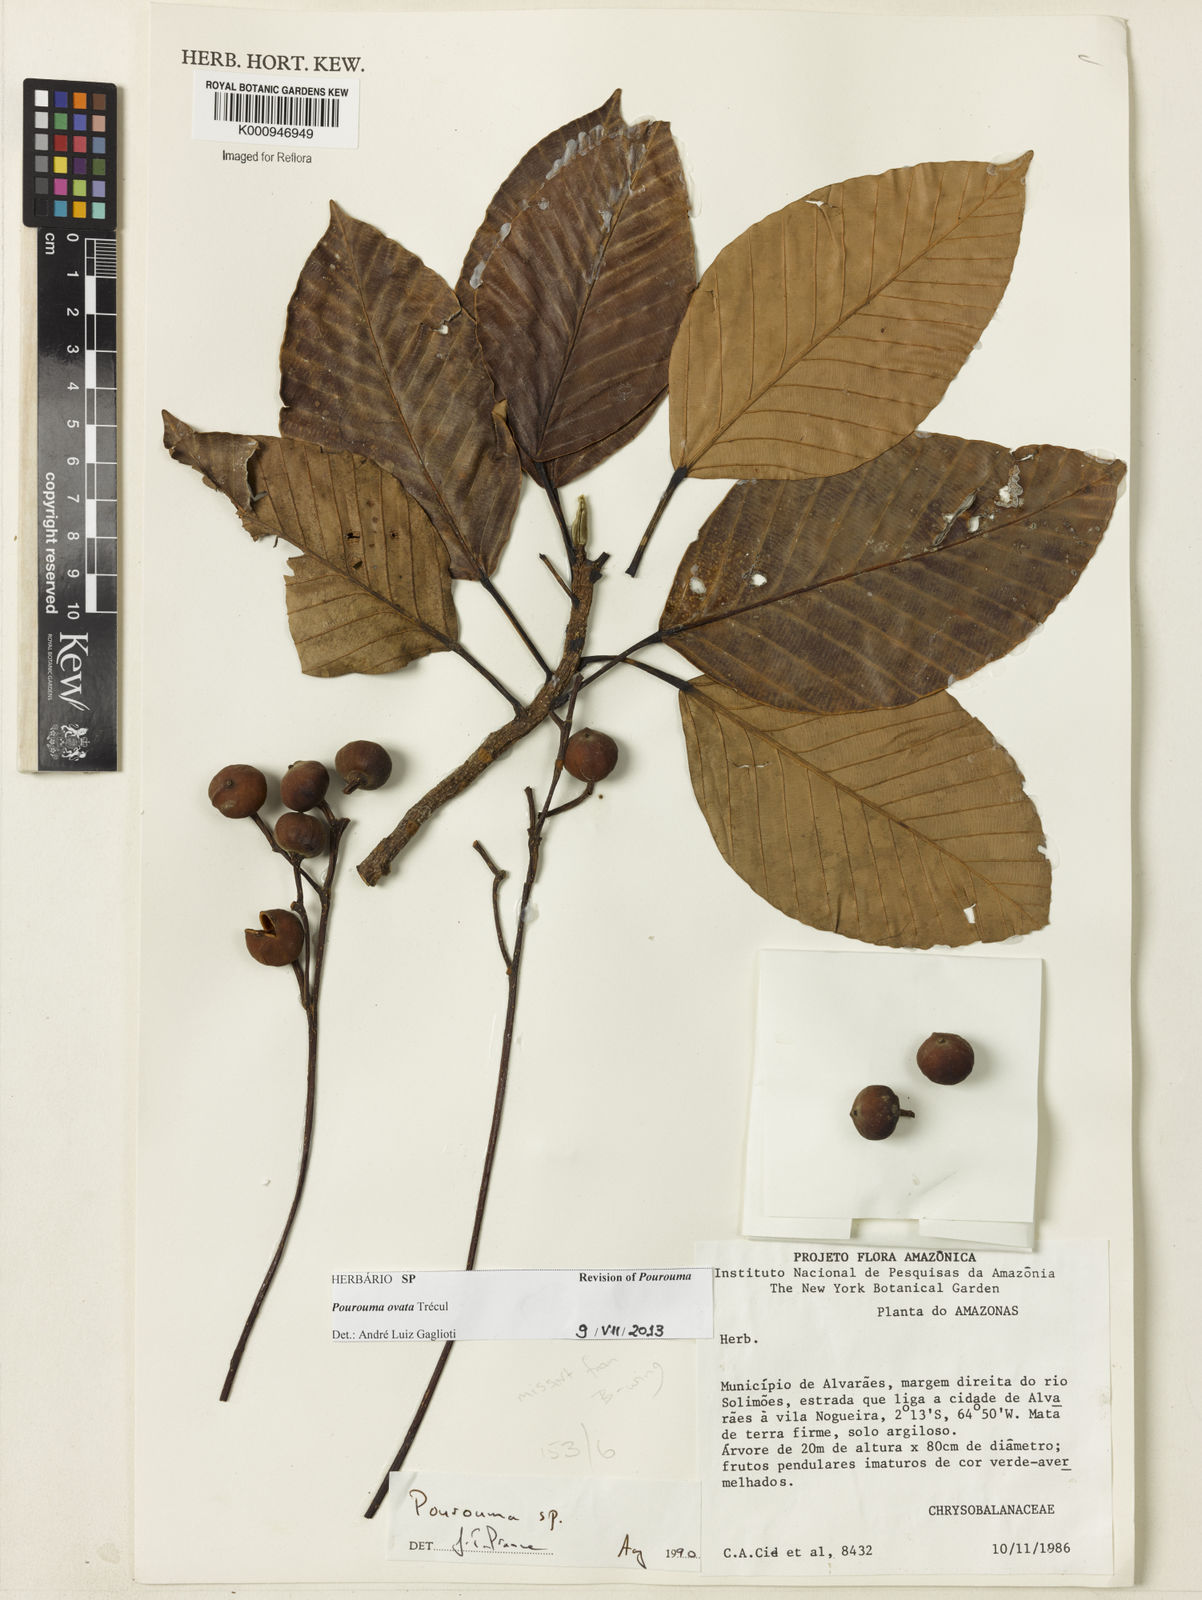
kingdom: Plantae
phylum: Tracheophyta
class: Magnoliopsida
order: Rosales
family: Urticaceae
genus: Pourouma
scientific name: Pourouma
